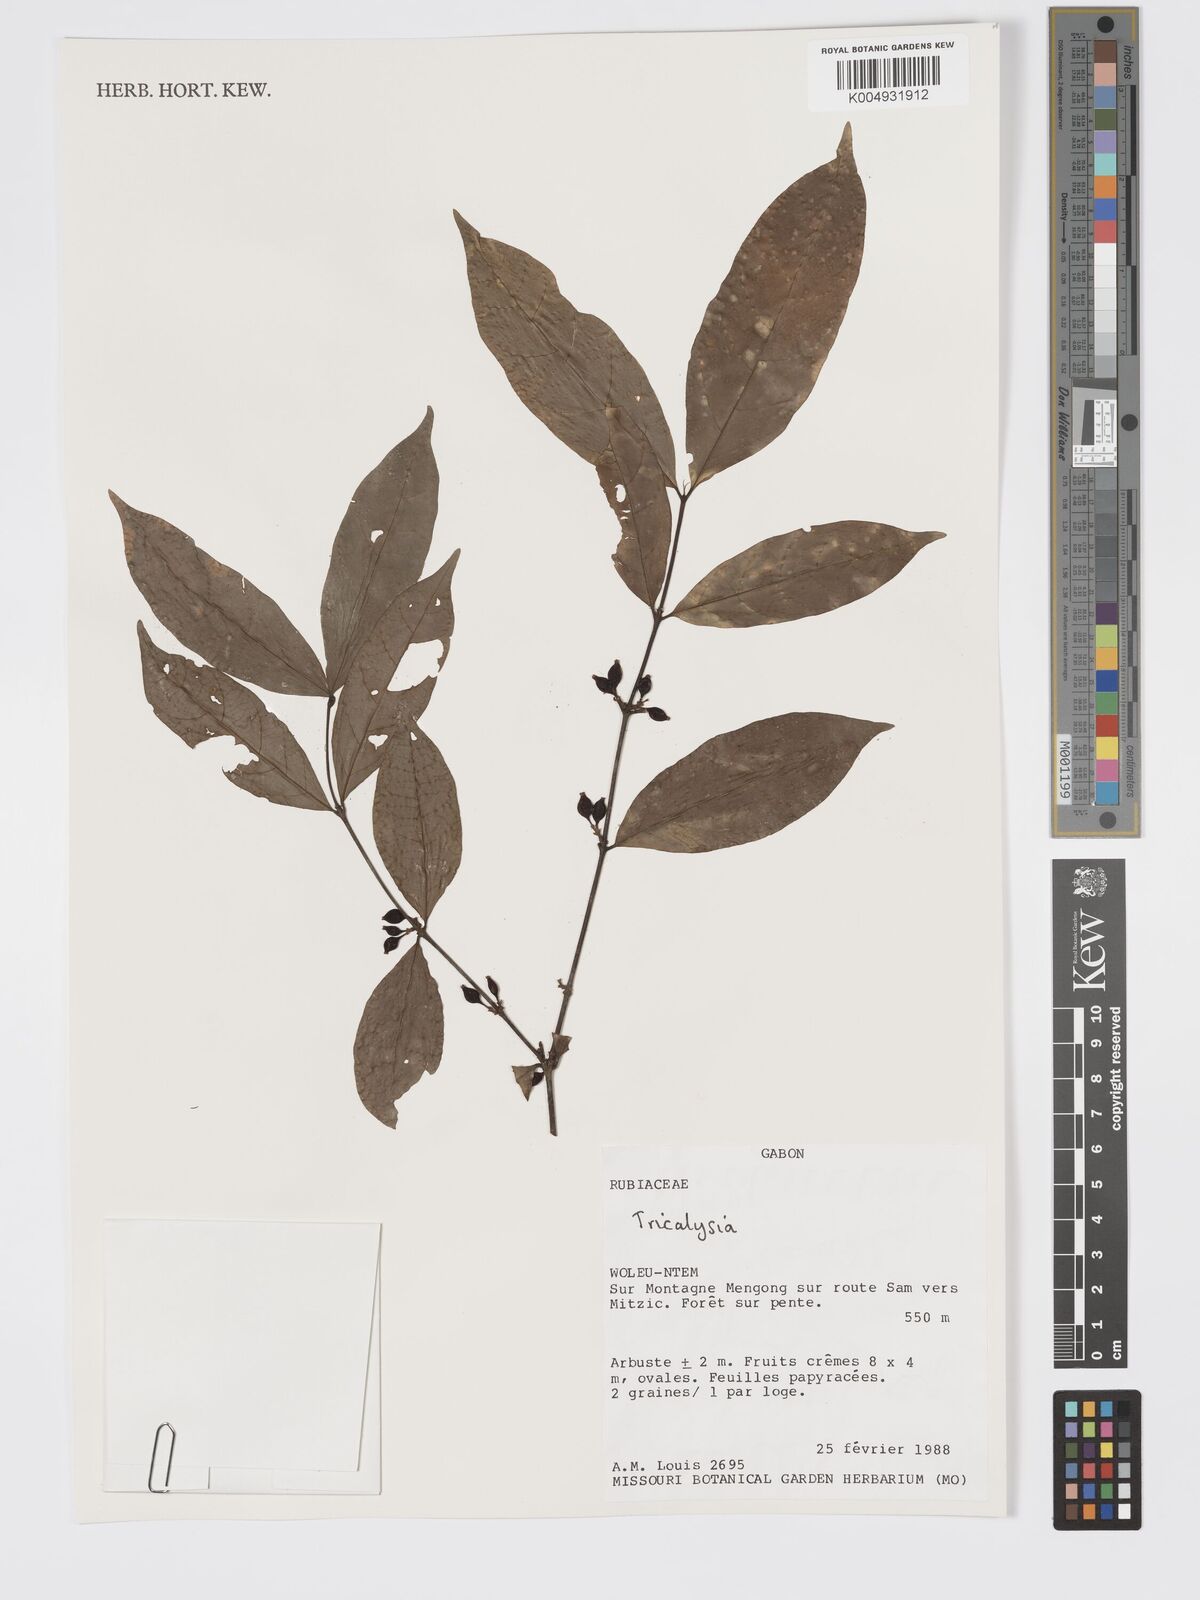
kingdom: Plantae
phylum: Tracheophyta
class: Magnoliopsida
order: Gentianales
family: Rubiaceae
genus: Tricalysia
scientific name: Tricalysia
